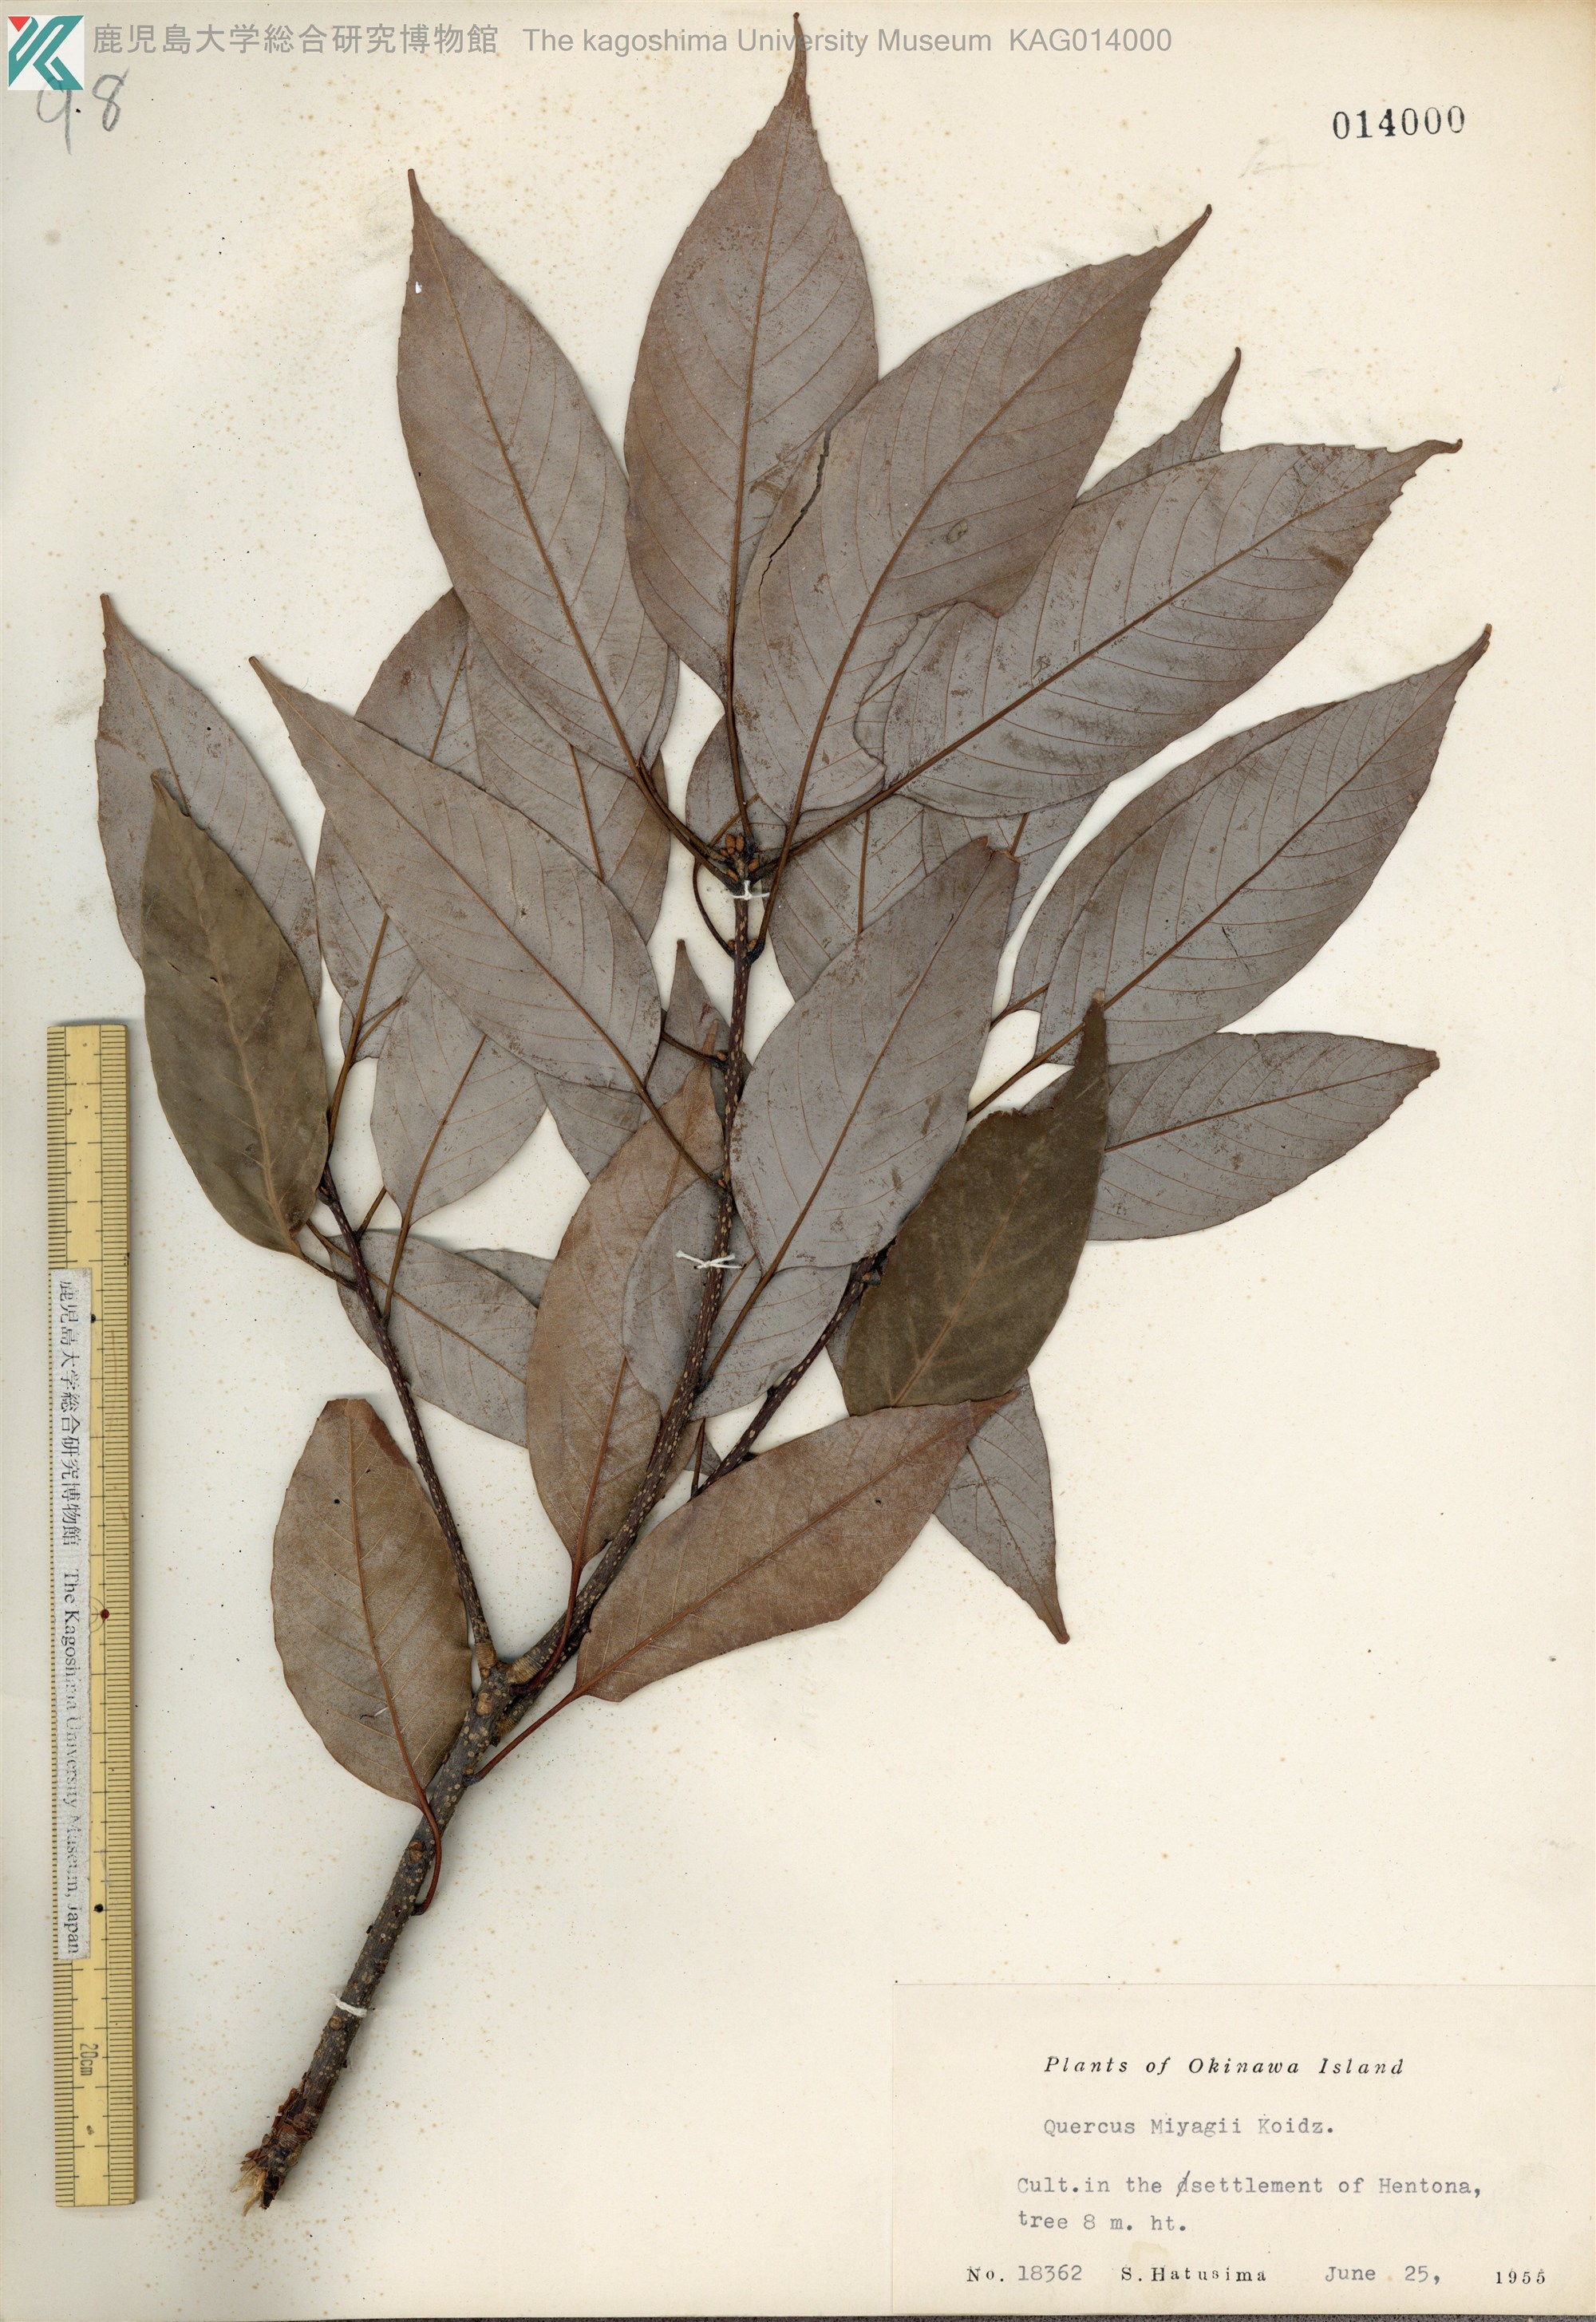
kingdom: Plantae
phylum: Tracheophyta
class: Magnoliopsida
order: Fagales
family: Fagaceae
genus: Quercus
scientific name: Quercus miyagii
